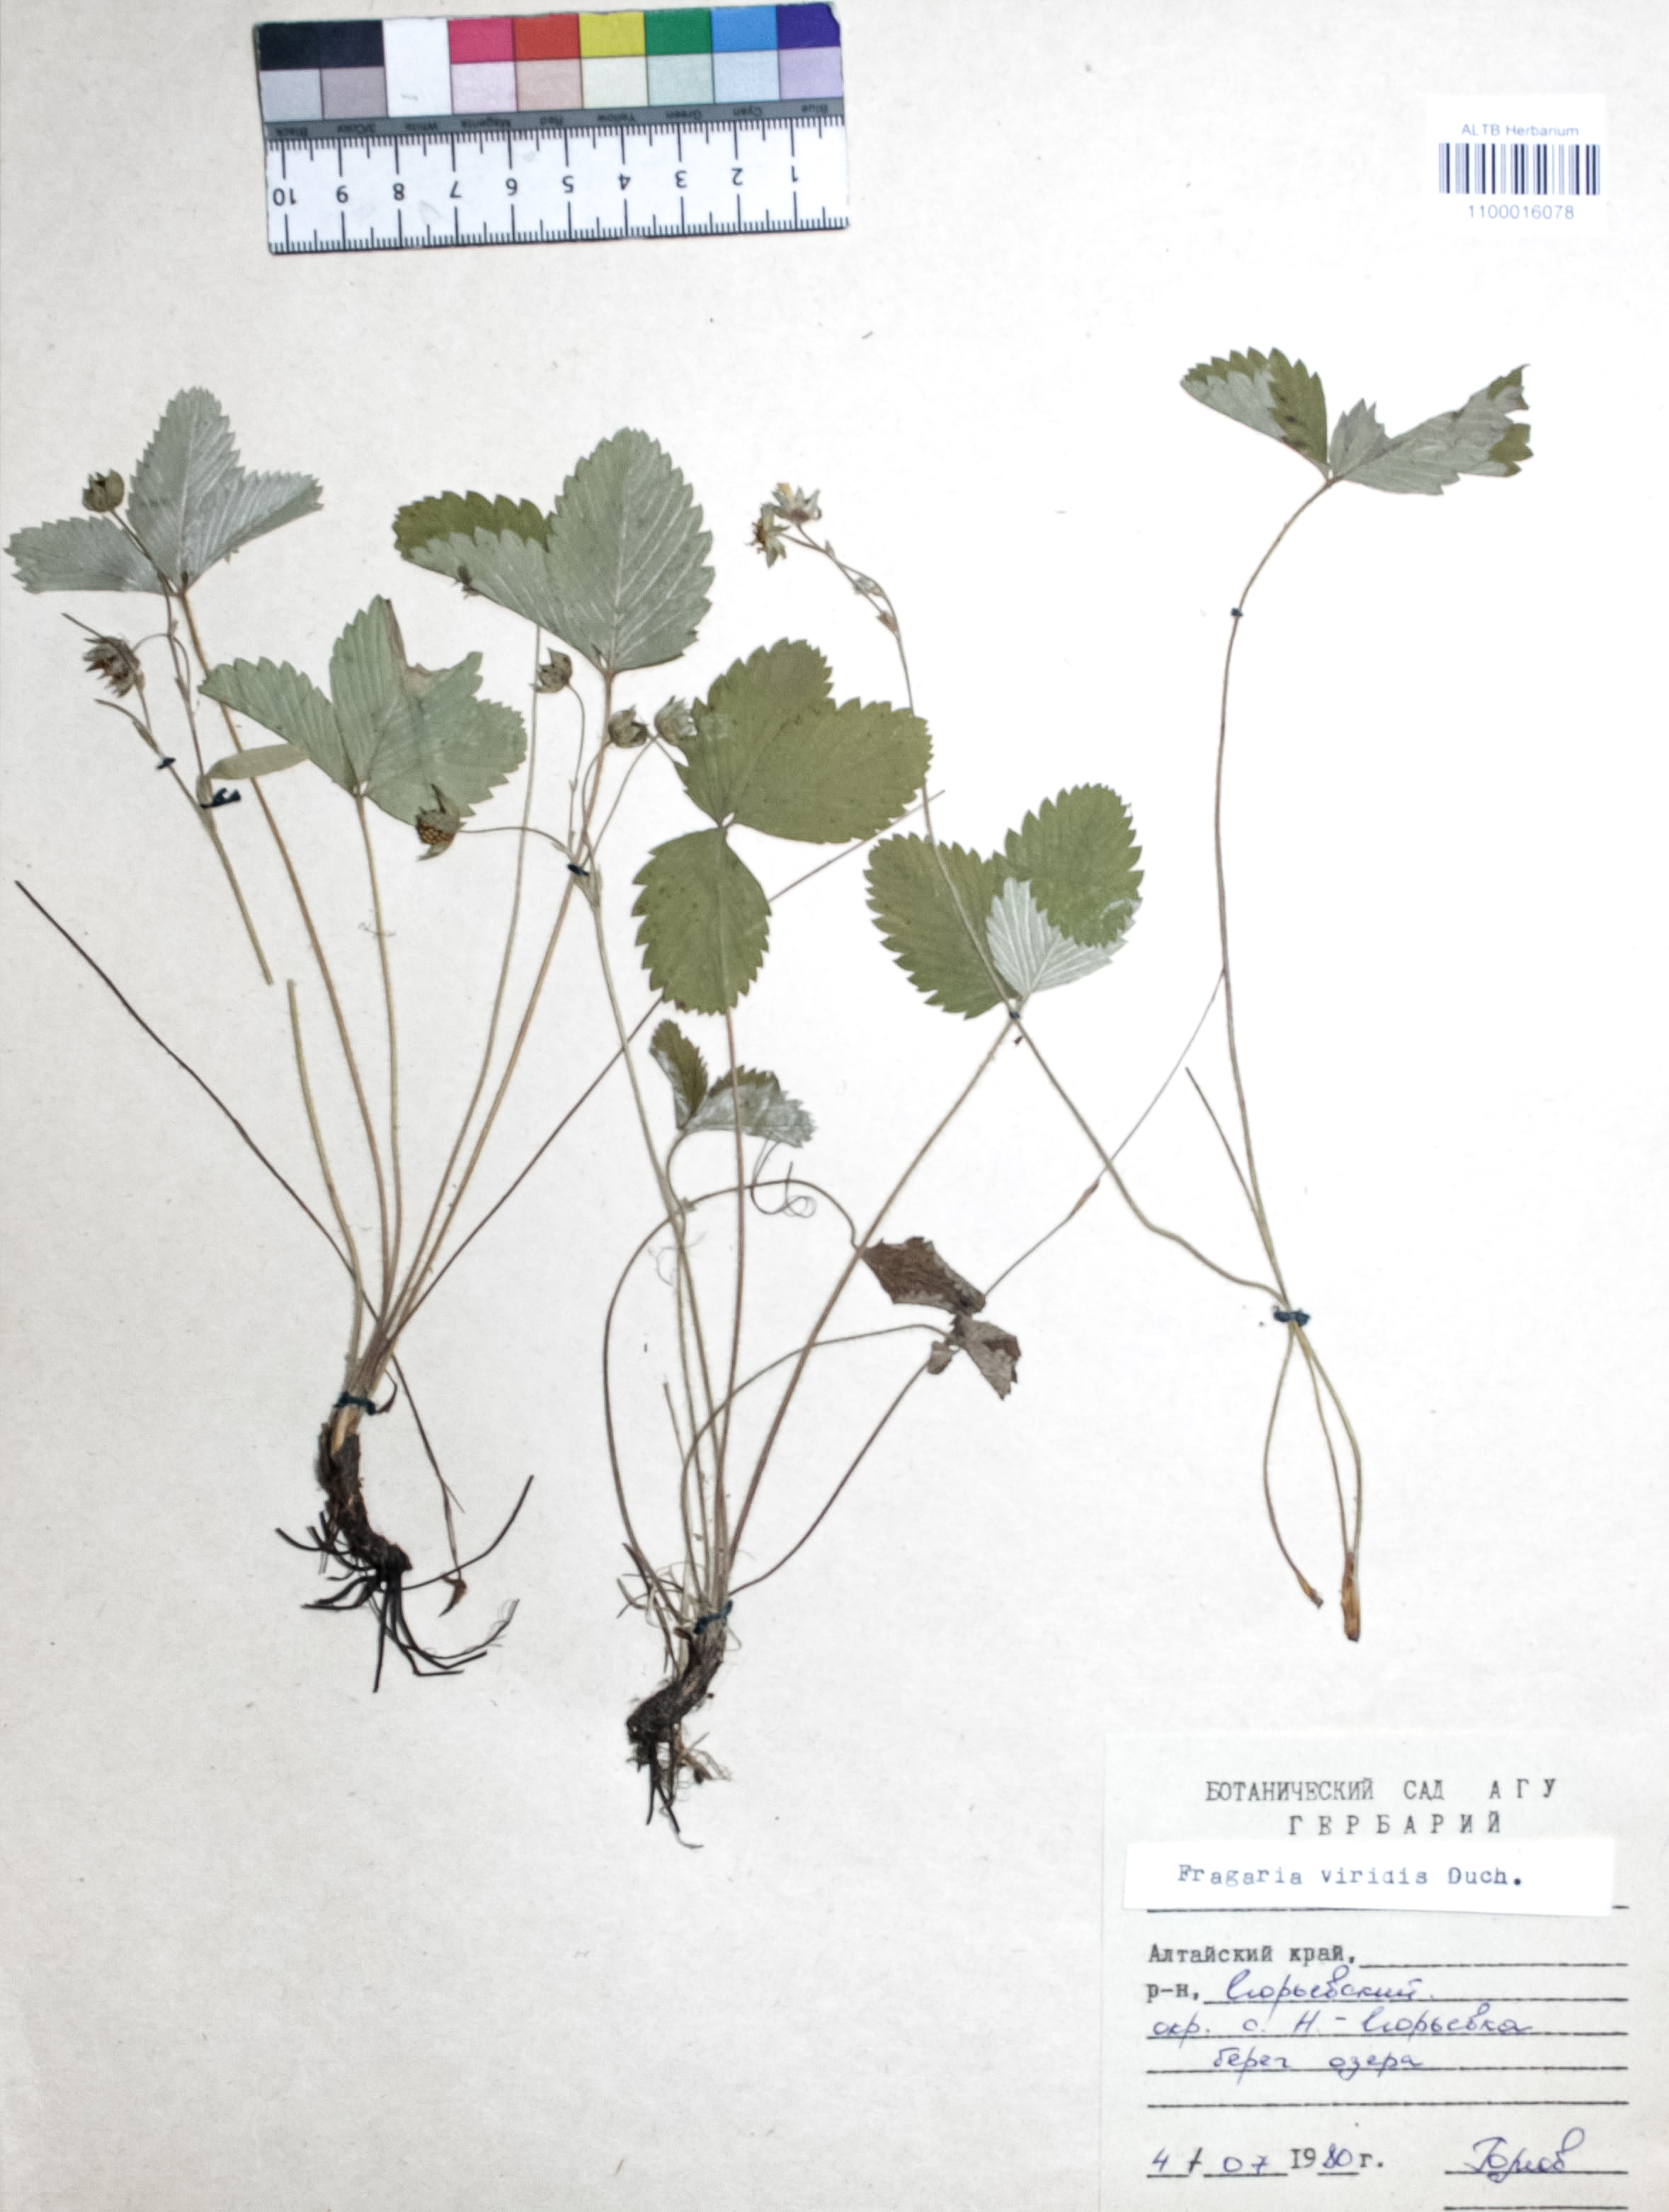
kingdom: Plantae
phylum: Tracheophyta
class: Magnoliopsida
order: Rosales
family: Rosaceae
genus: Fragaria
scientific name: Fragaria viridis
